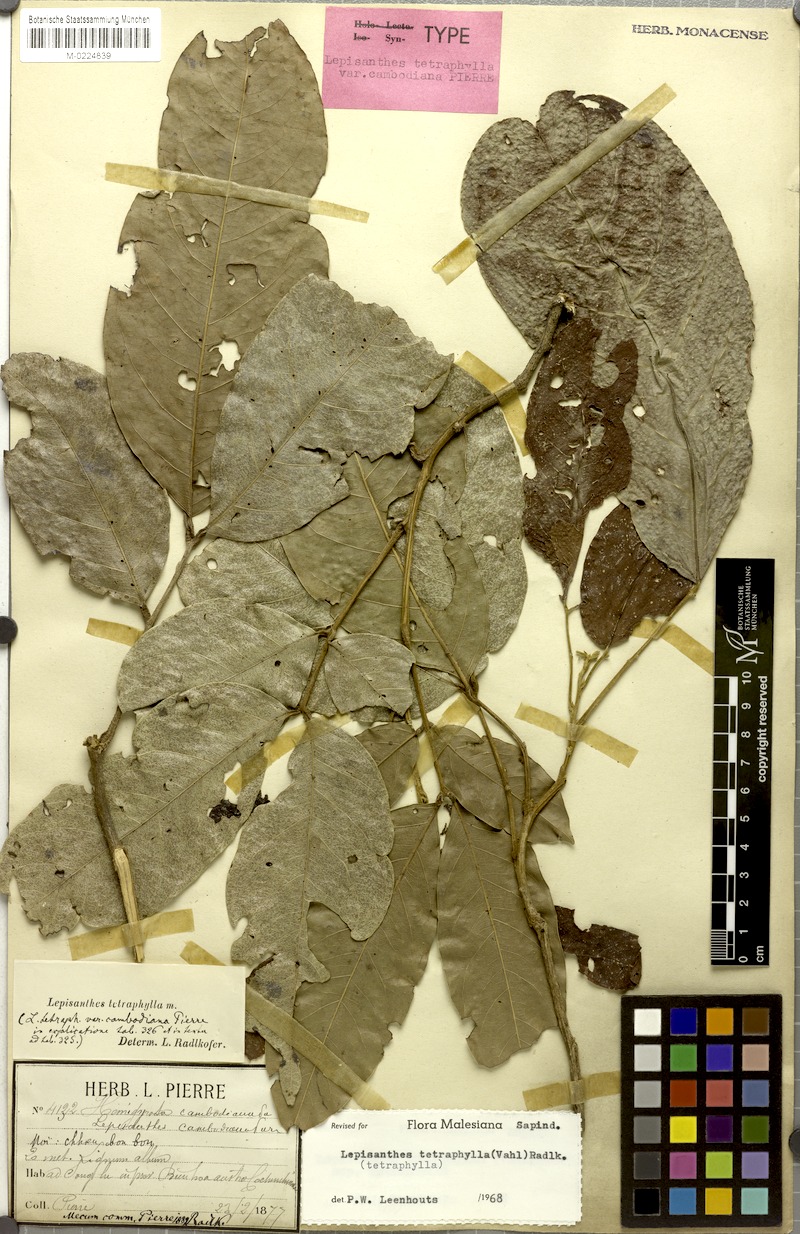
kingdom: Plantae
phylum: Tracheophyta
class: Magnoliopsida
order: Sapindales
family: Sapindaceae
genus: Lepisanthes
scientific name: Lepisanthes tetraphylla
